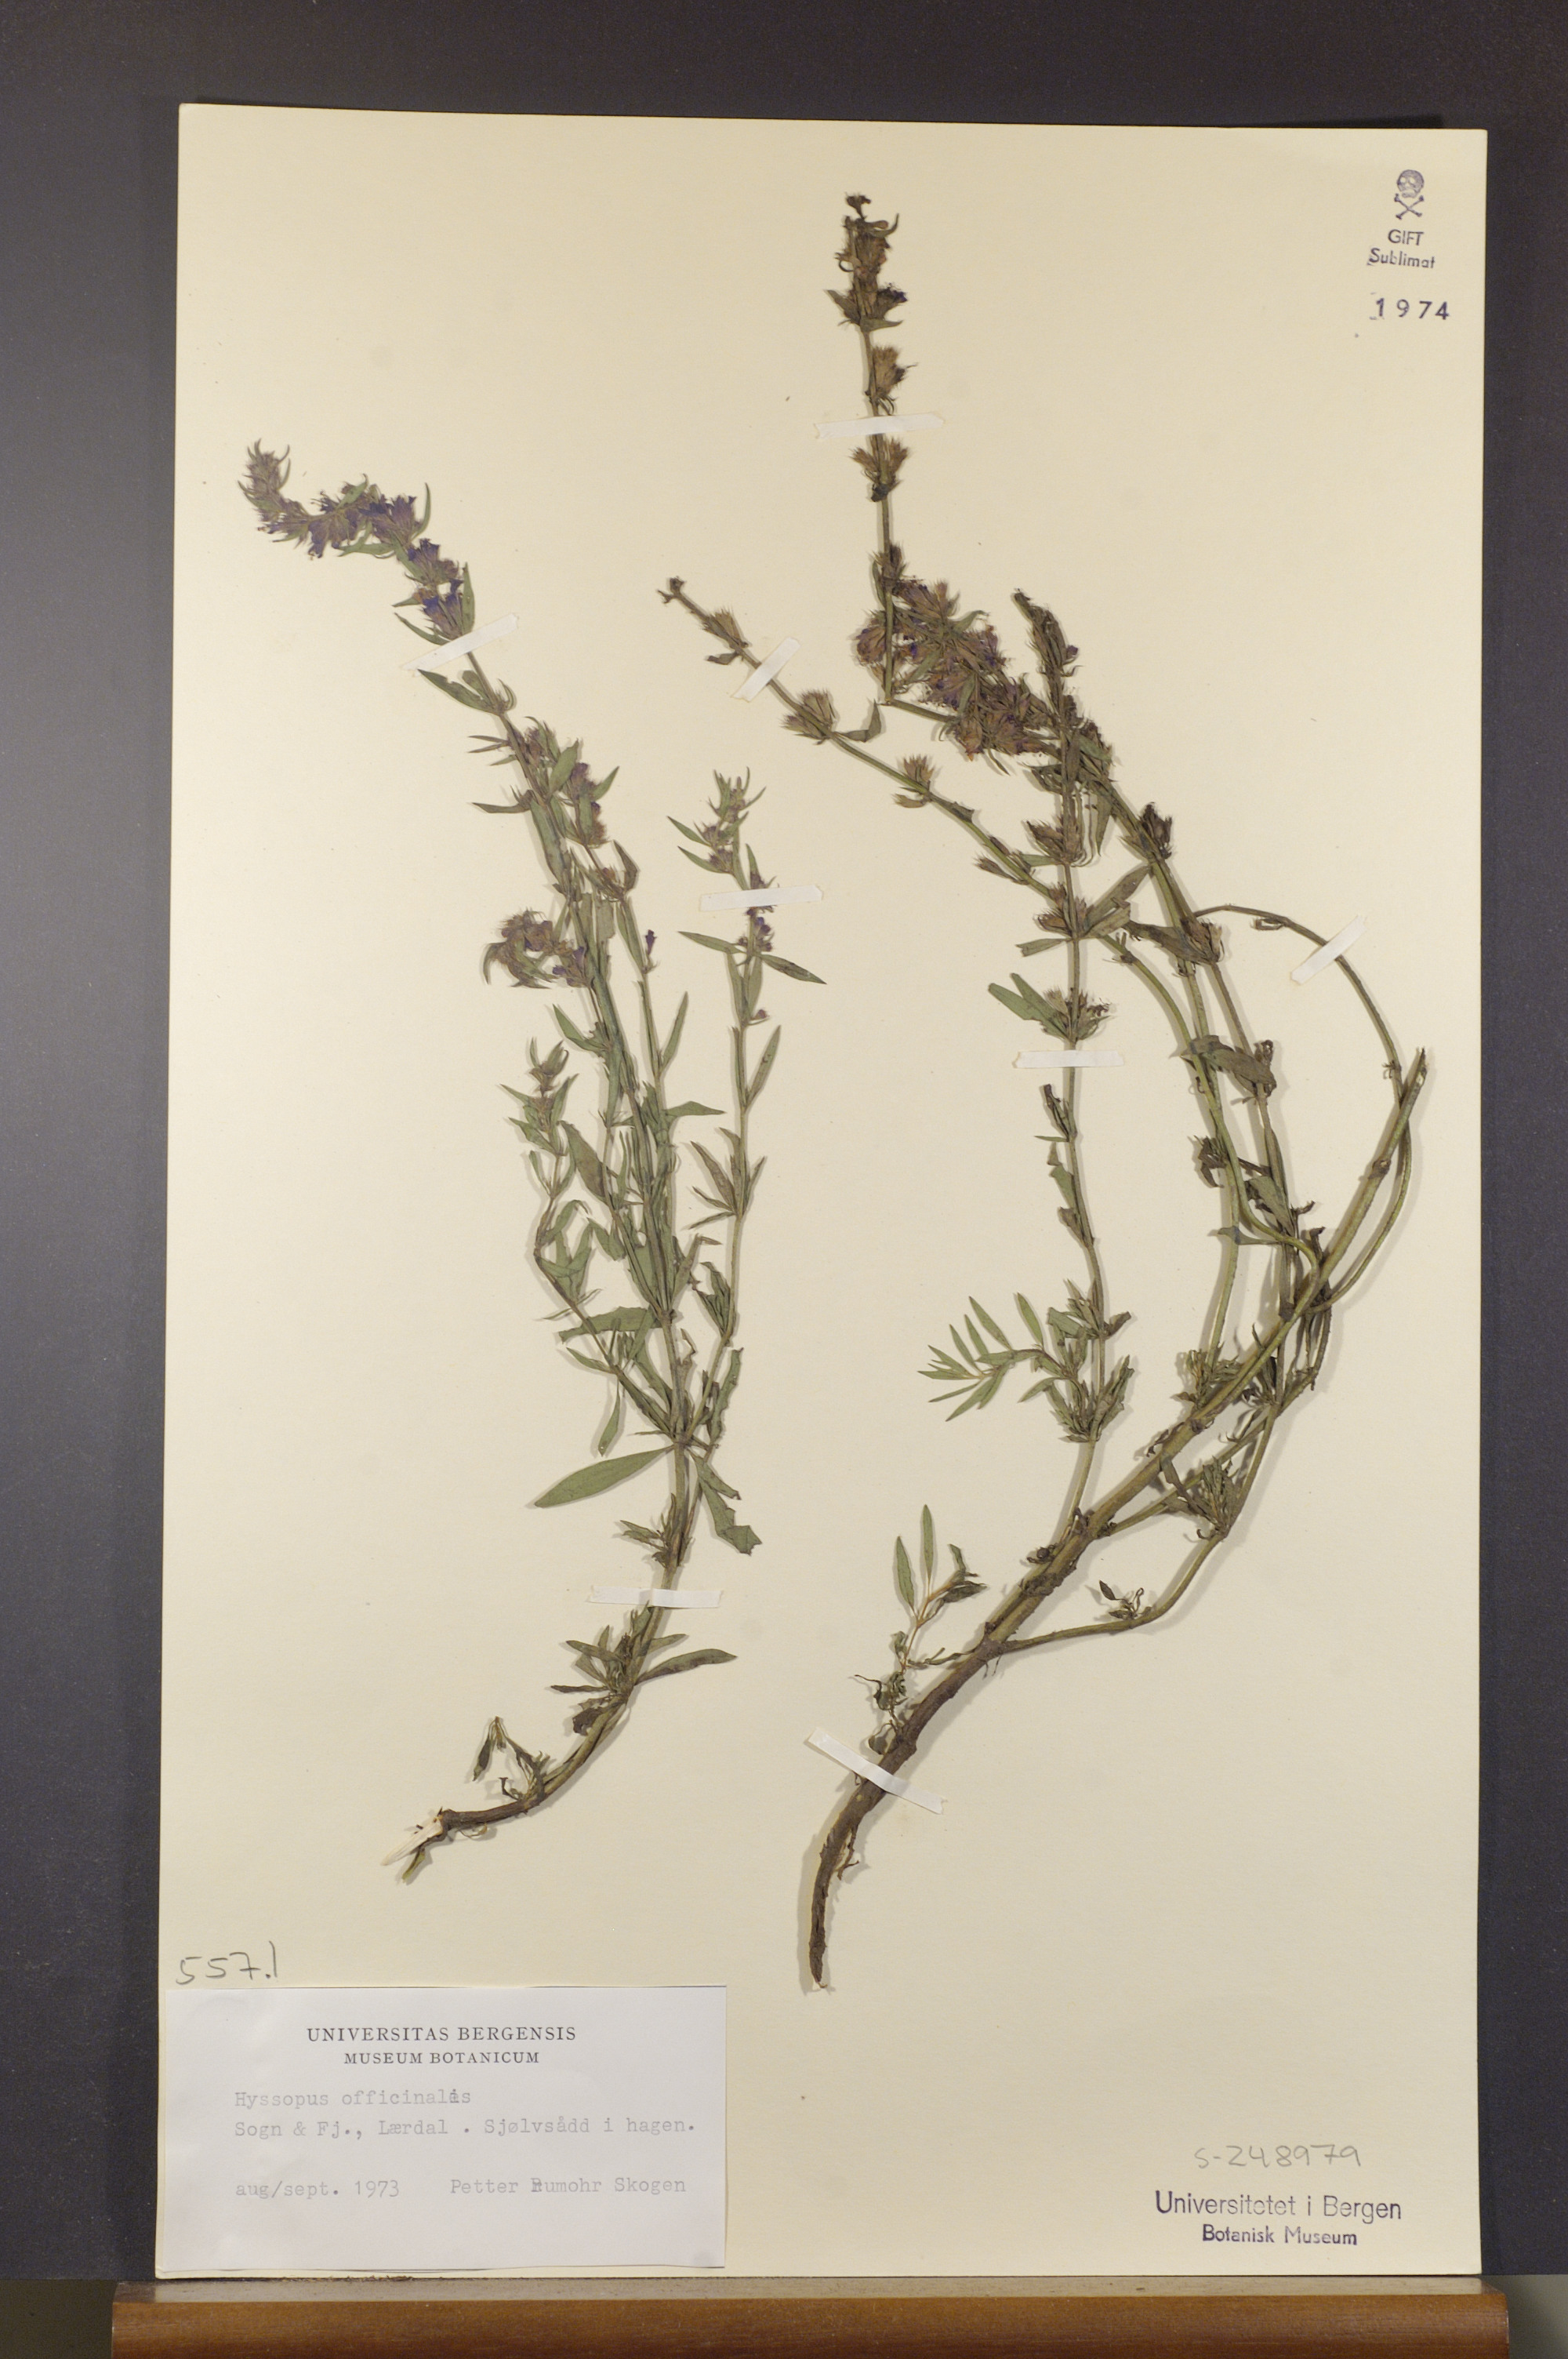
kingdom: Plantae
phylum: Tracheophyta
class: Magnoliopsida
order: Lamiales
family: Lamiaceae
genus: Hyssopus
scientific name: Hyssopus officinalis
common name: Hyssop
